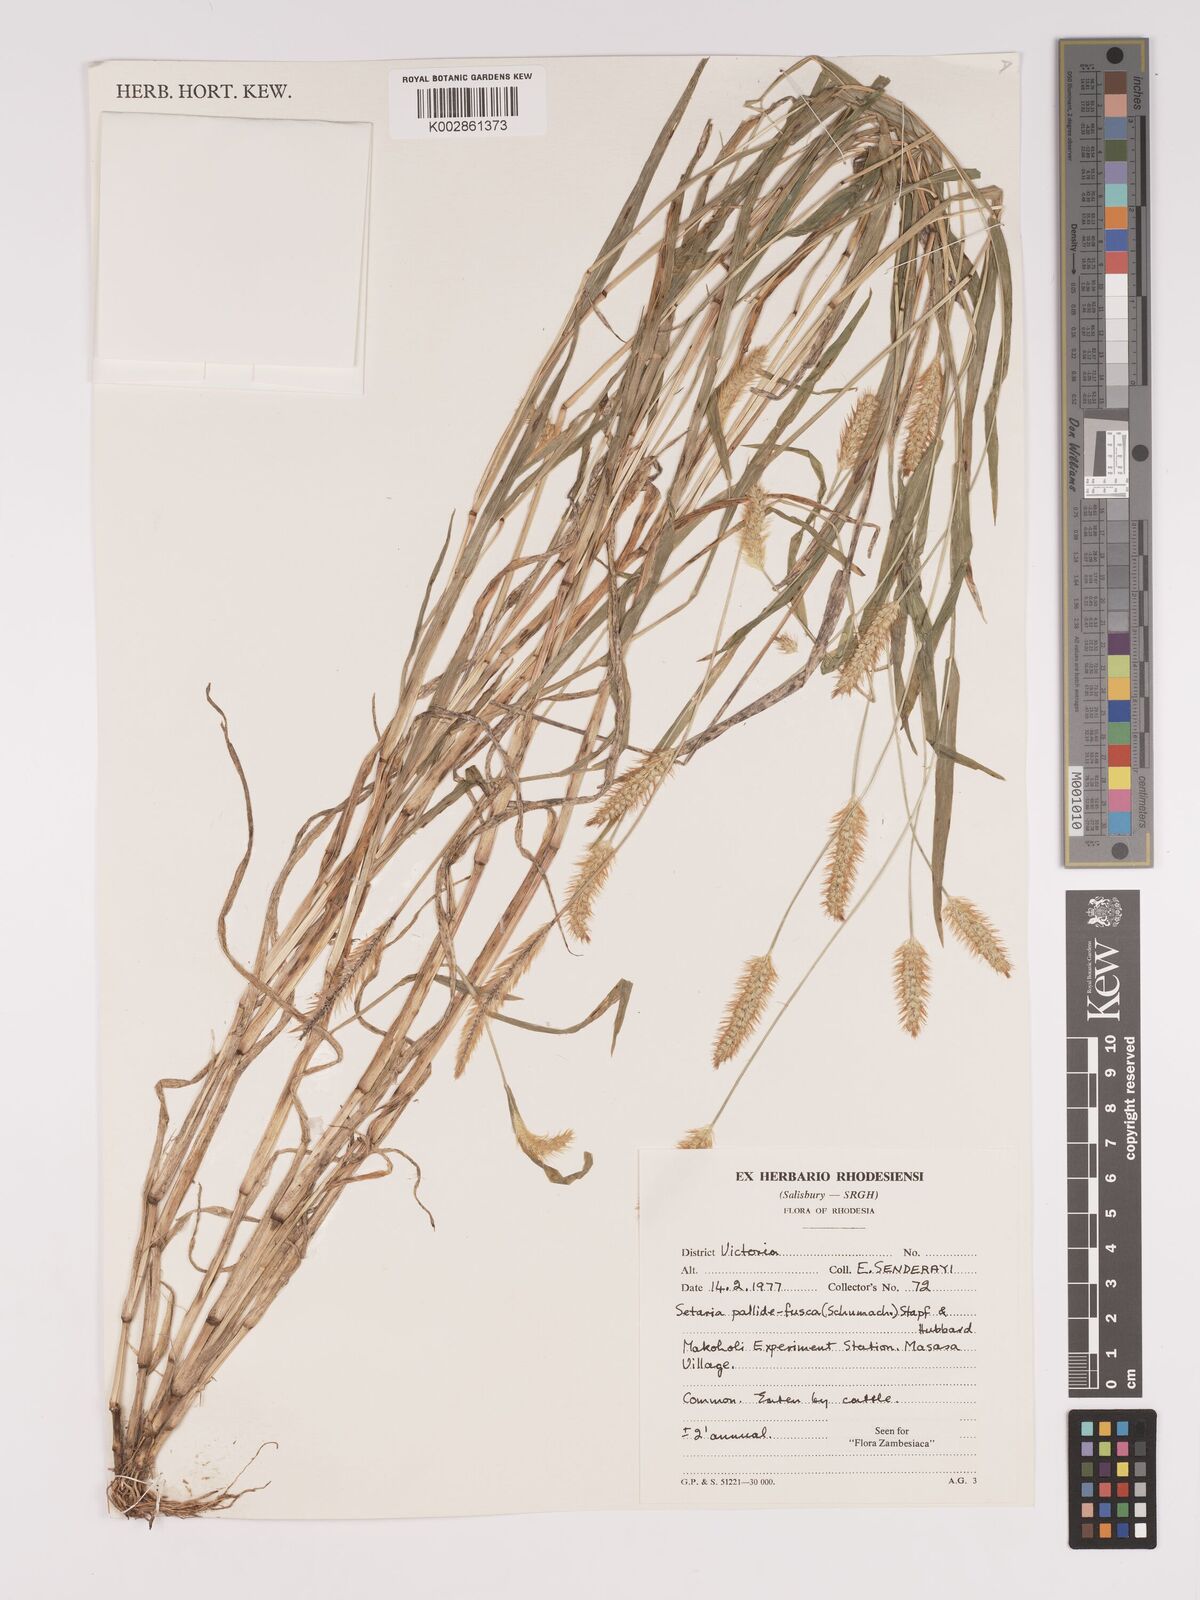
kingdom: Plantae
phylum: Tracheophyta
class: Liliopsida
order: Poales
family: Poaceae
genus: Setaria
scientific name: Setaria pumila
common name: Yellow bristle-grass
